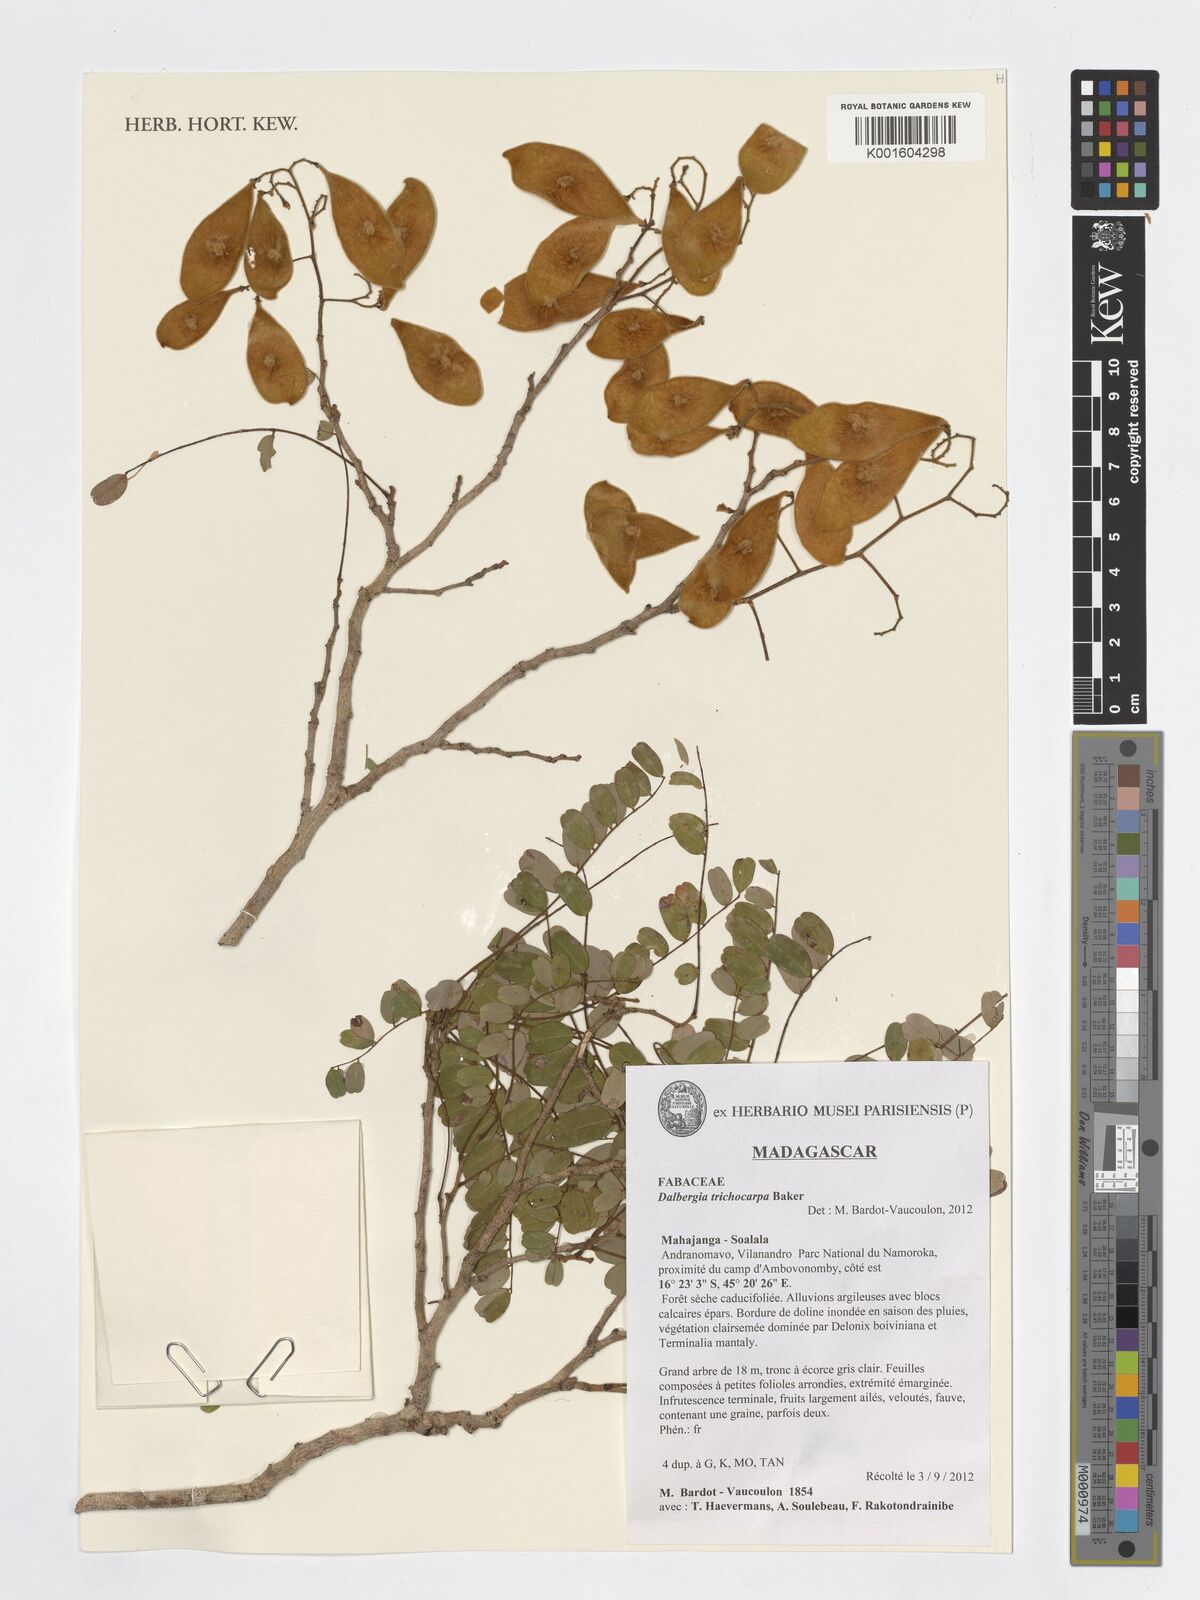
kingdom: Plantae
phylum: Tracheophyta
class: Magnoliopsida
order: Fabales
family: Fabaceae
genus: Dalbergia
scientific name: Dalbergia trichocarpa
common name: Rosewood
